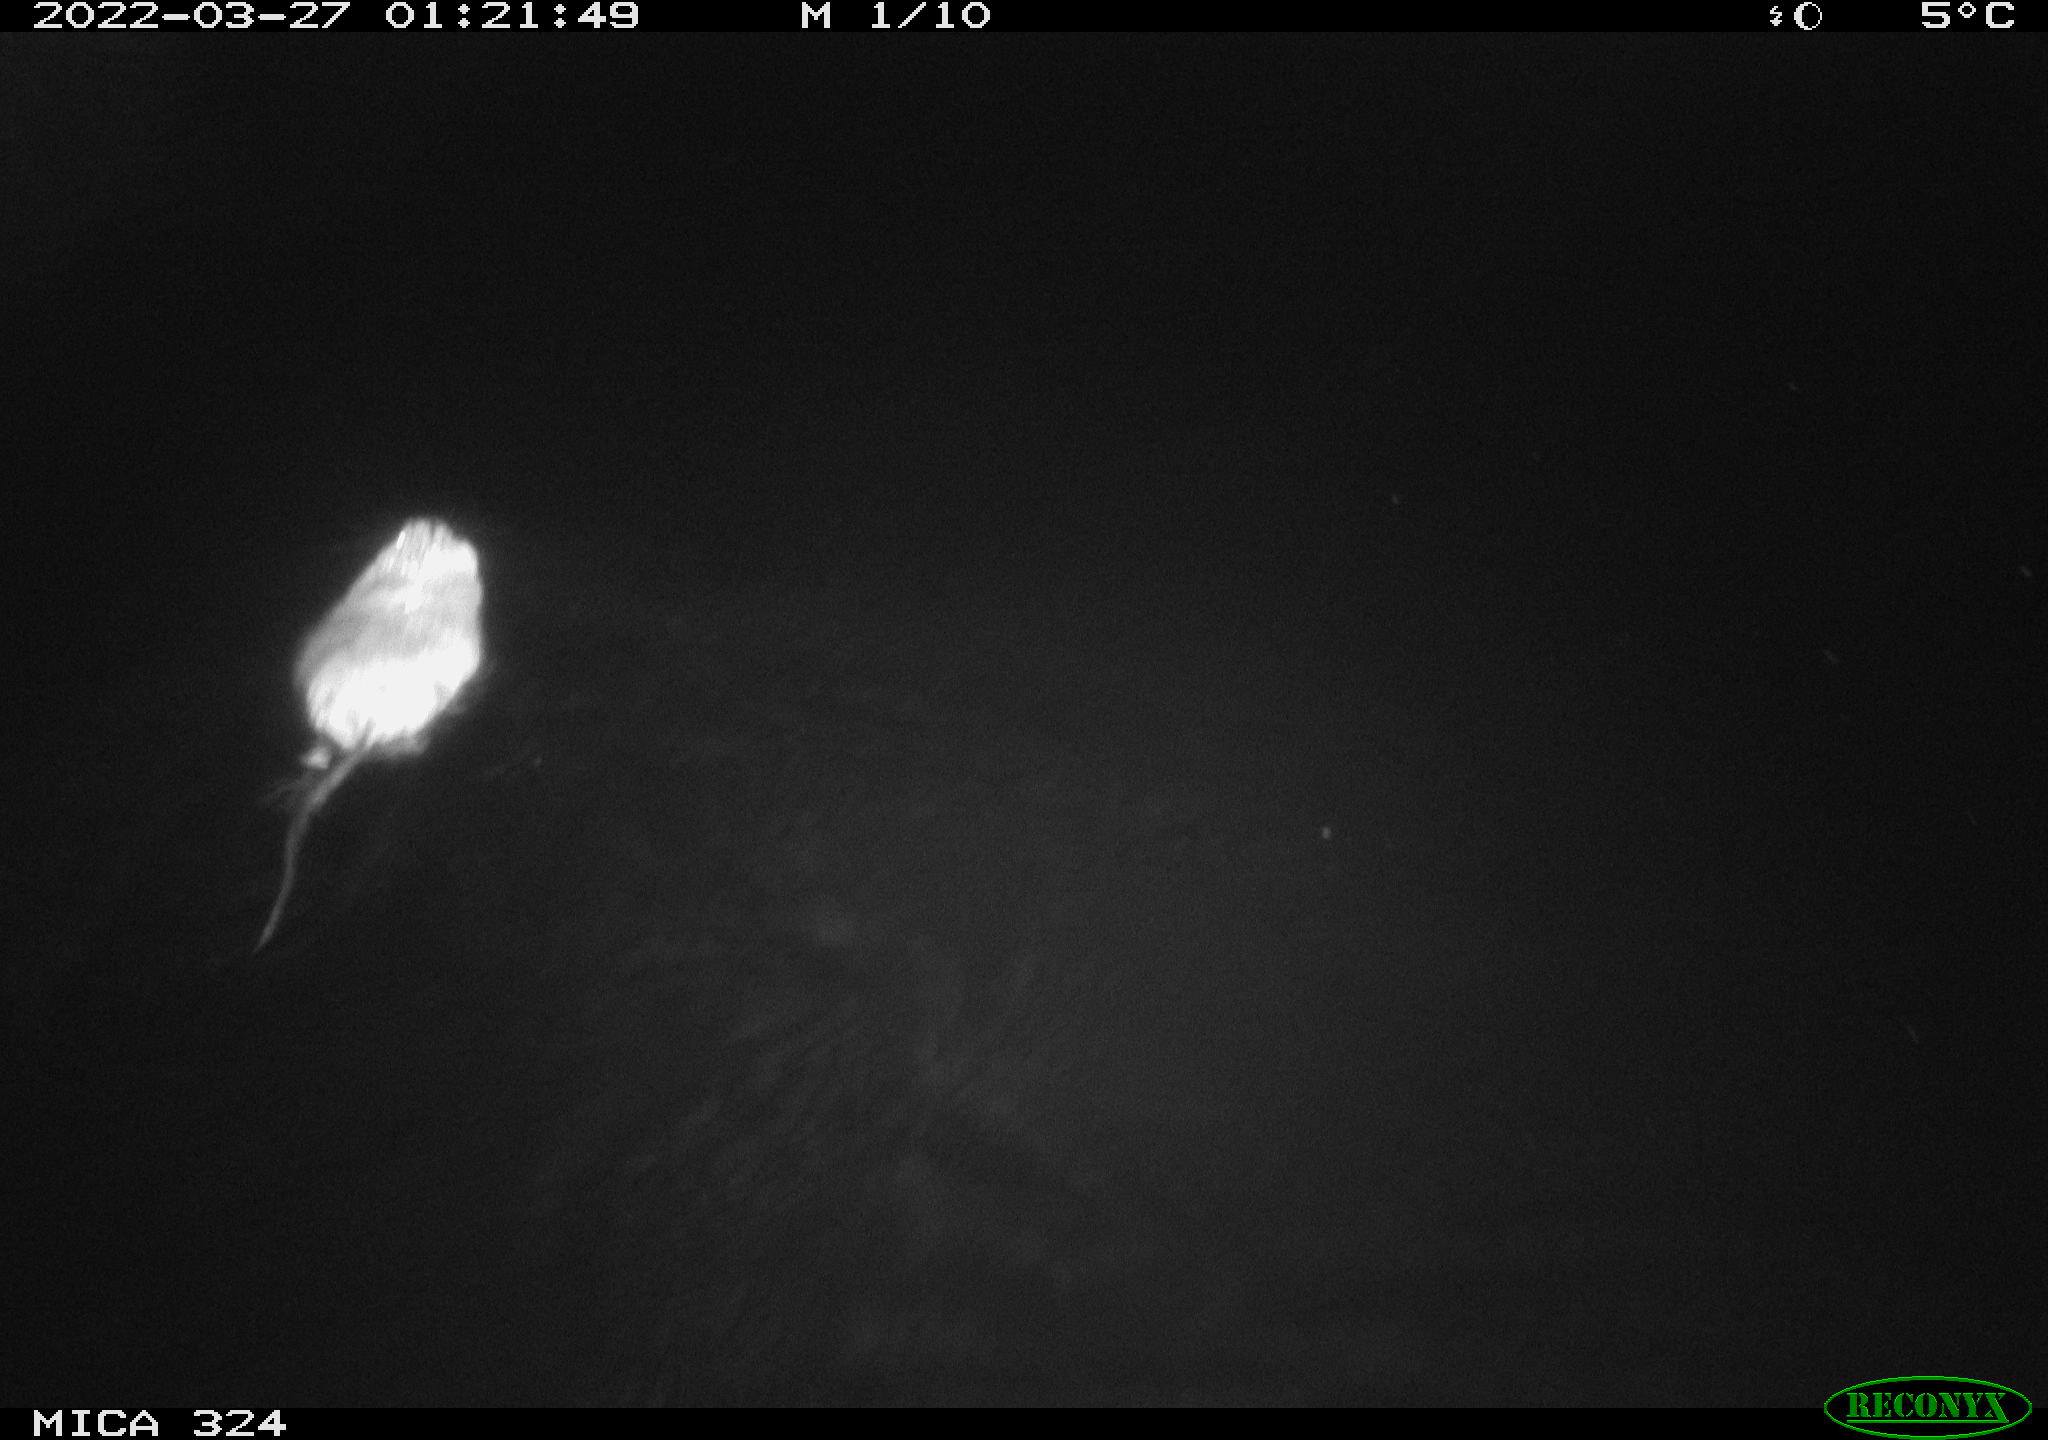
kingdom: Animalia
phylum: Chordata
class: Mammalia
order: Rodentia
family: Cricetidae
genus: Ondatra
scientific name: Ondatra zibethicus
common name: Muskrat
